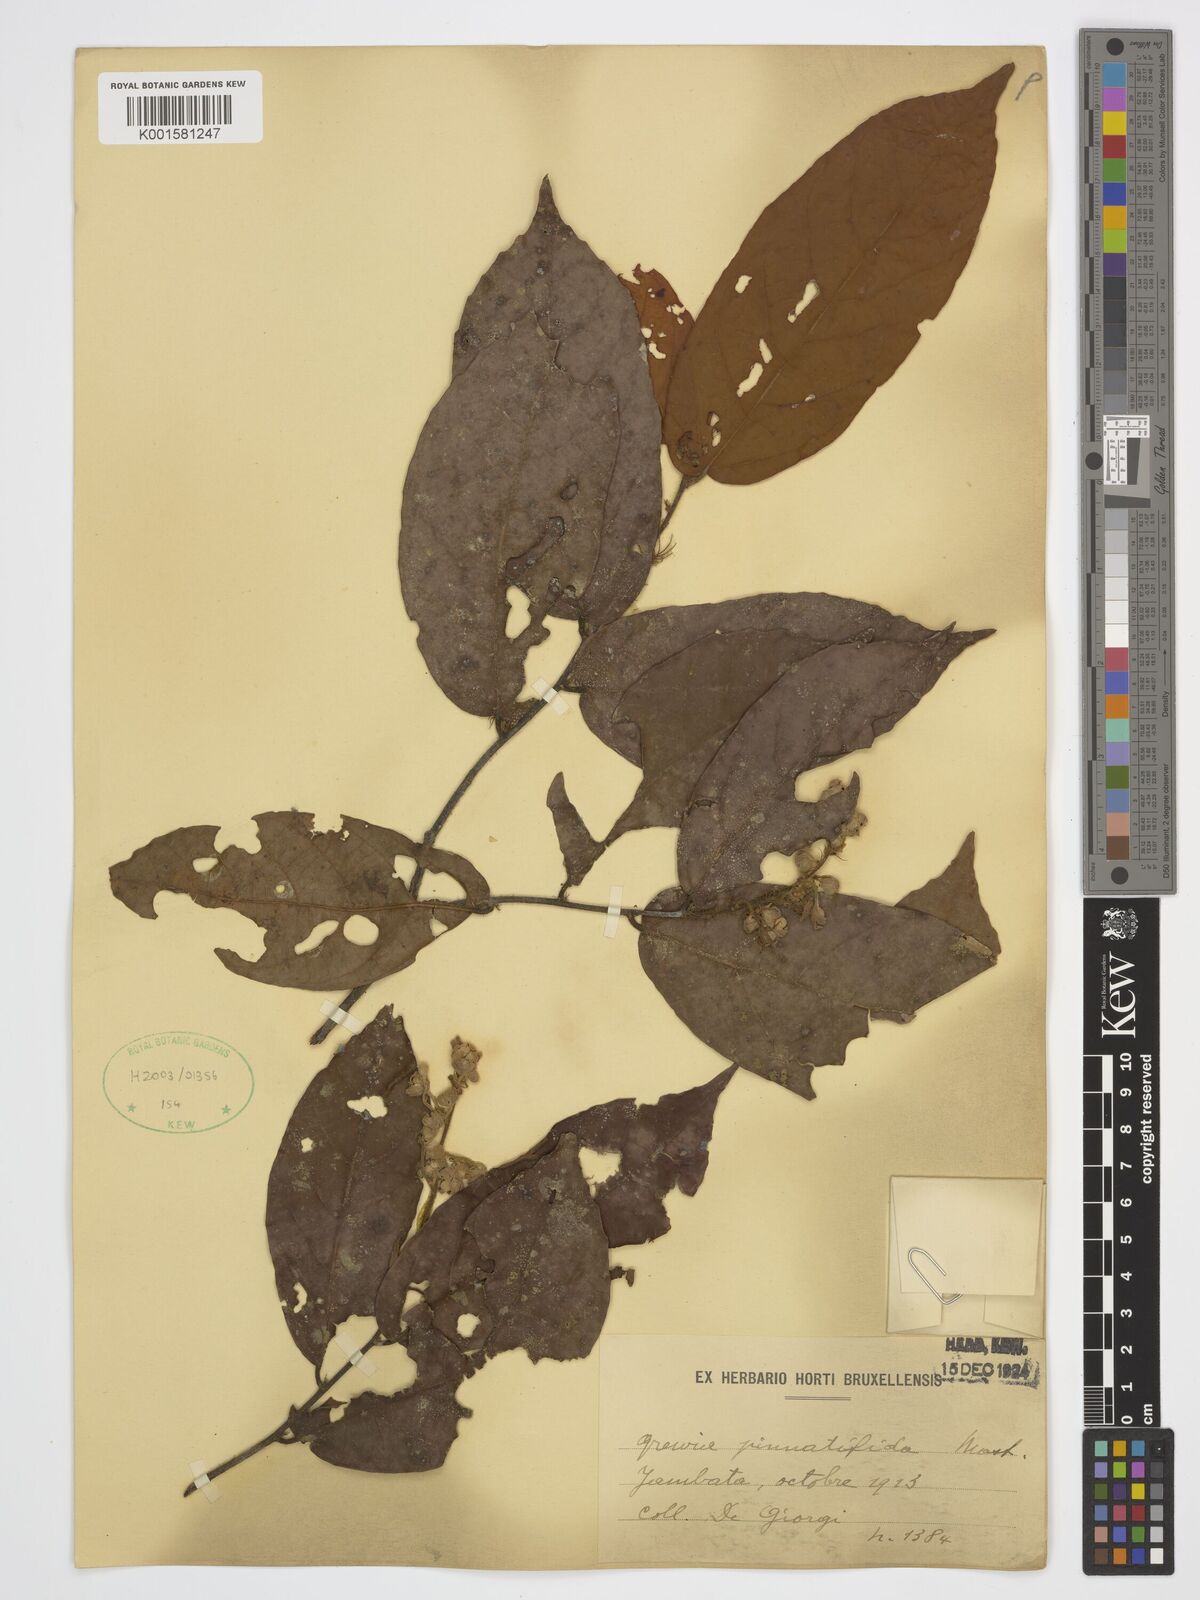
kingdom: Plantae
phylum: Tracheophyta
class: Magnoliopsida
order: Malvales
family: Malvaceae
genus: Microcos
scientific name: Microcos pinnatifida
